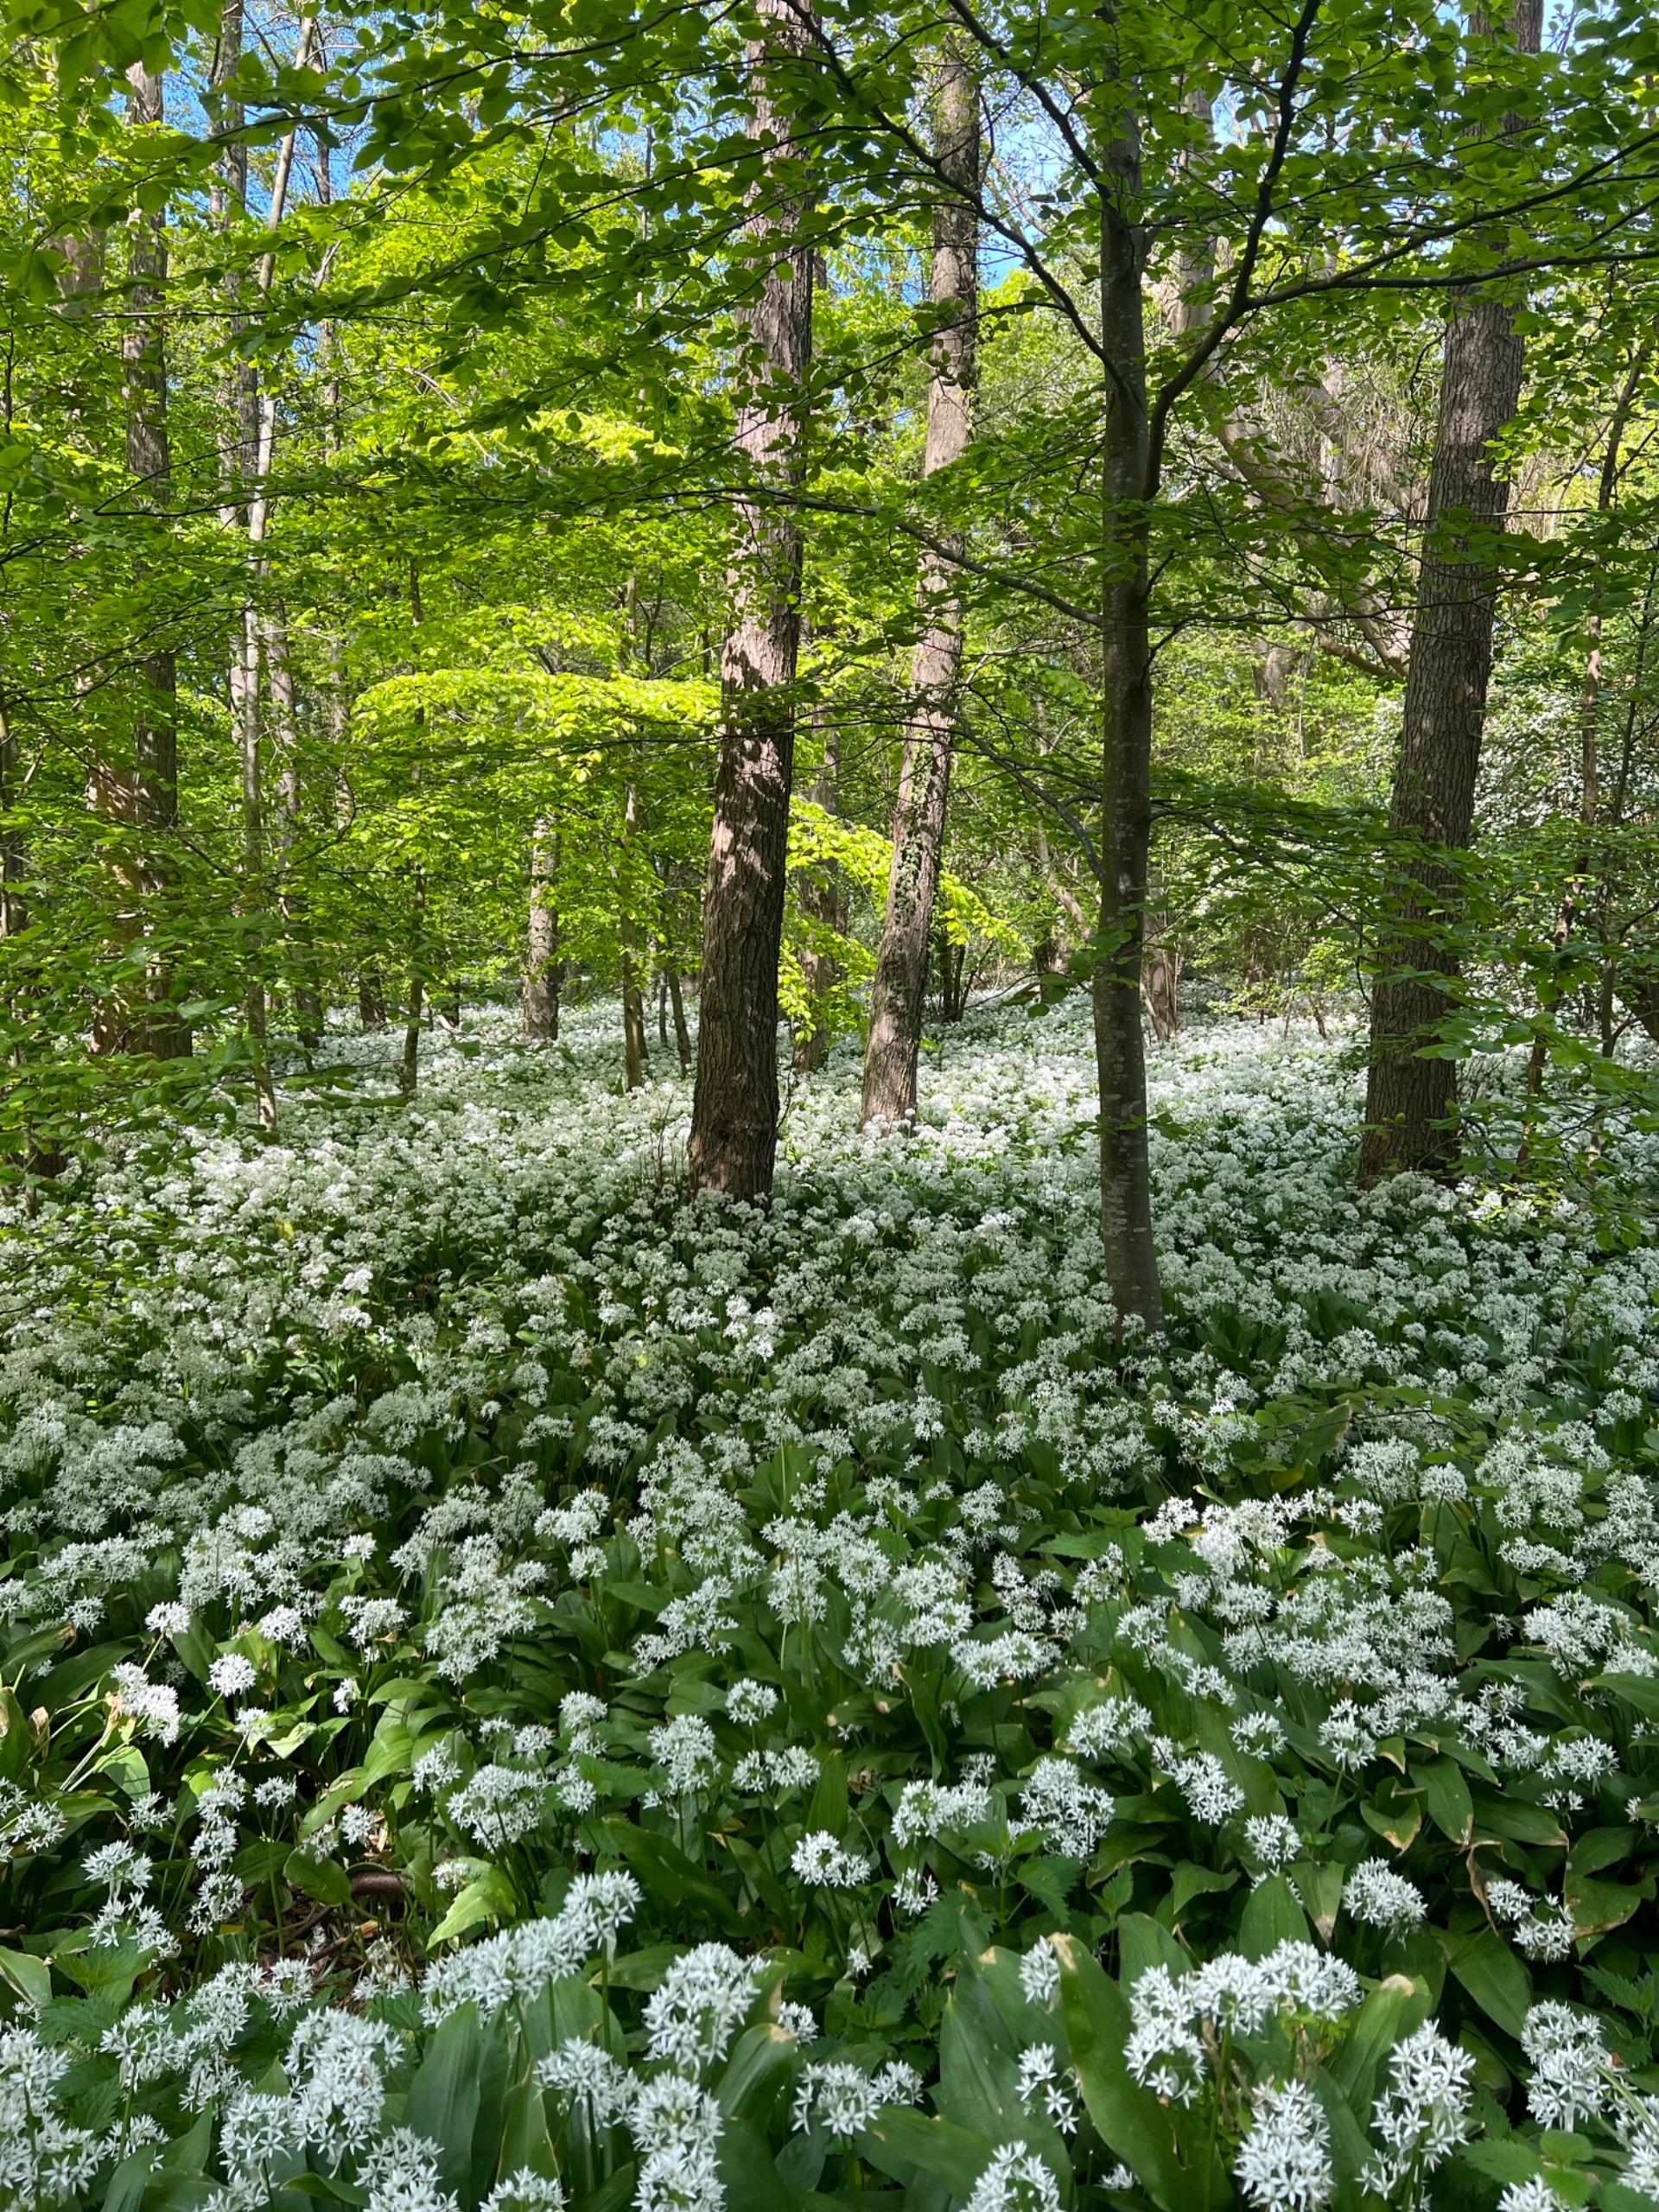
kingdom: Plantae
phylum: Tracheophyta
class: Liliopsida
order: Asparagales
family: Amaryllidaceae
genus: Allium
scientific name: Allium ursinum
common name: Rams-løg
